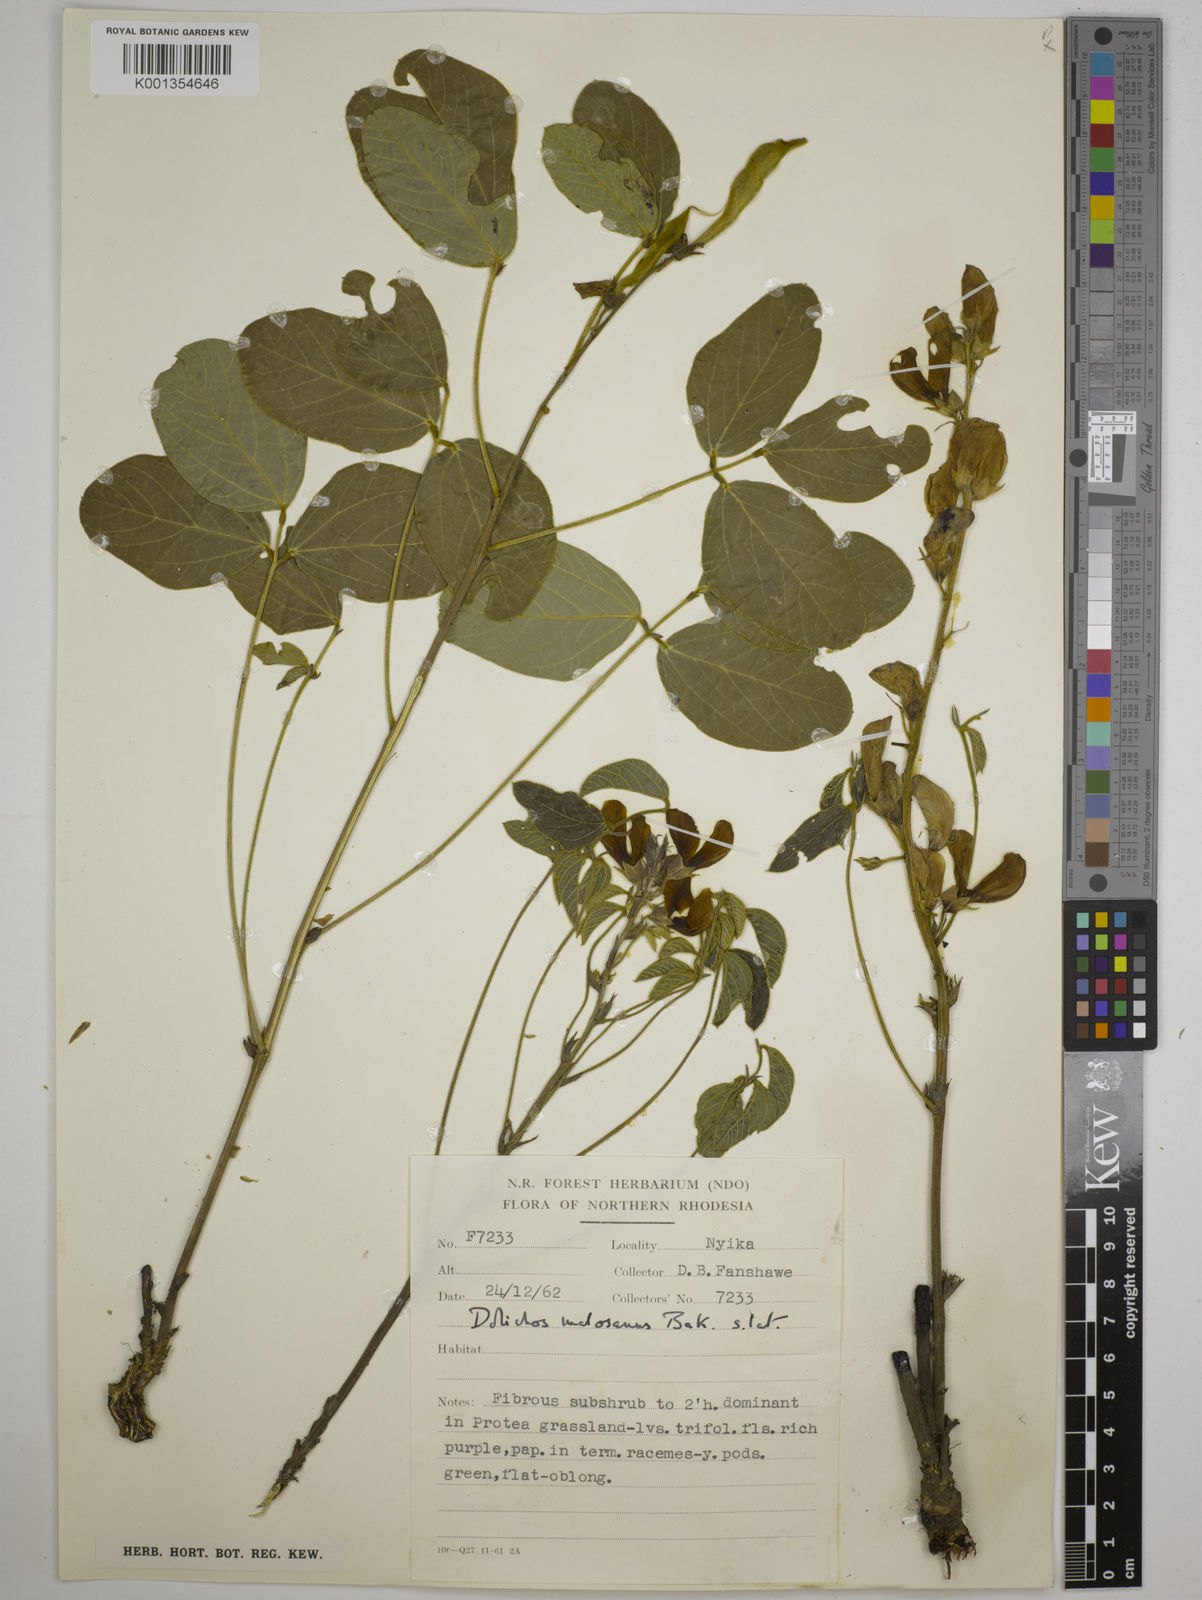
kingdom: Plantae
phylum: Tracheophyta
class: Magnoliopsida
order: Fabales
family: Fabaceae
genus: Dolichos
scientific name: Dolichos kilimandscharicus
